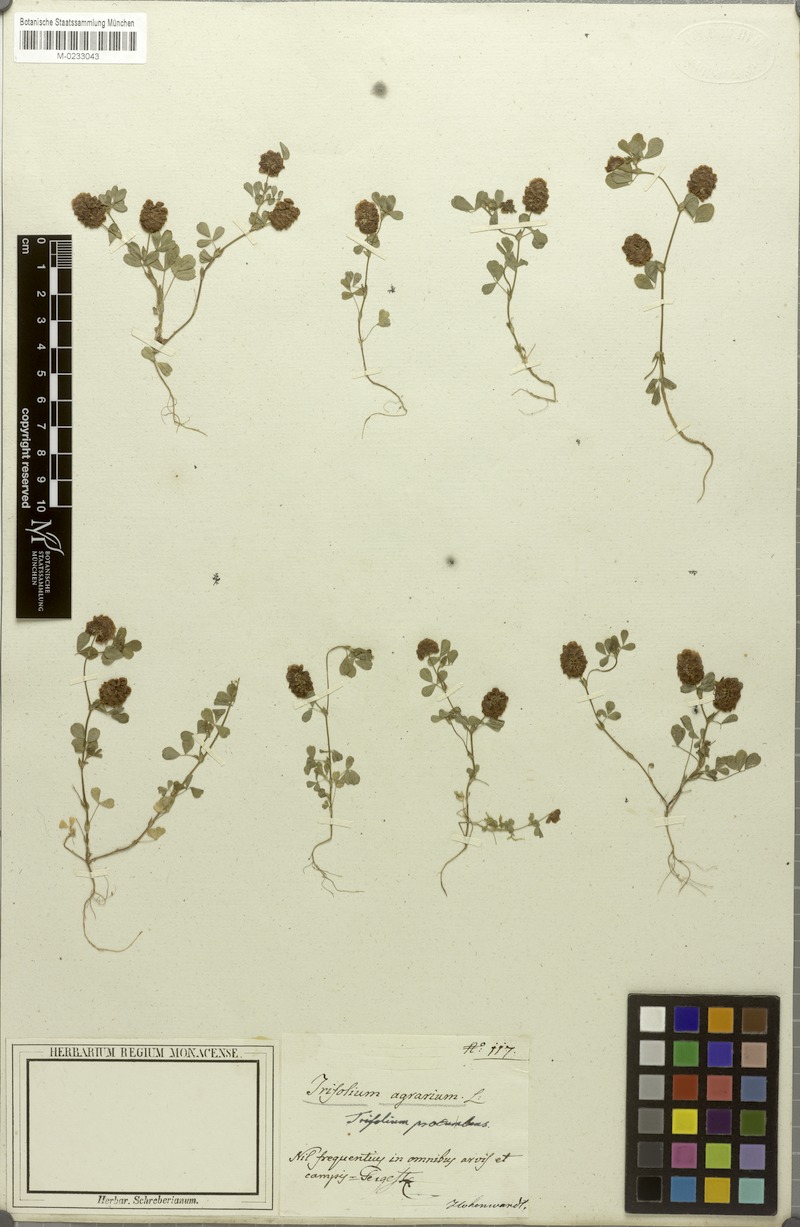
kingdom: Plantae
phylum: Tracheophyta
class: Magnoliopsida
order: Fabales
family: Fabaceae
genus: Trifolium
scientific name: Trifolium campestre
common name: Field clover
